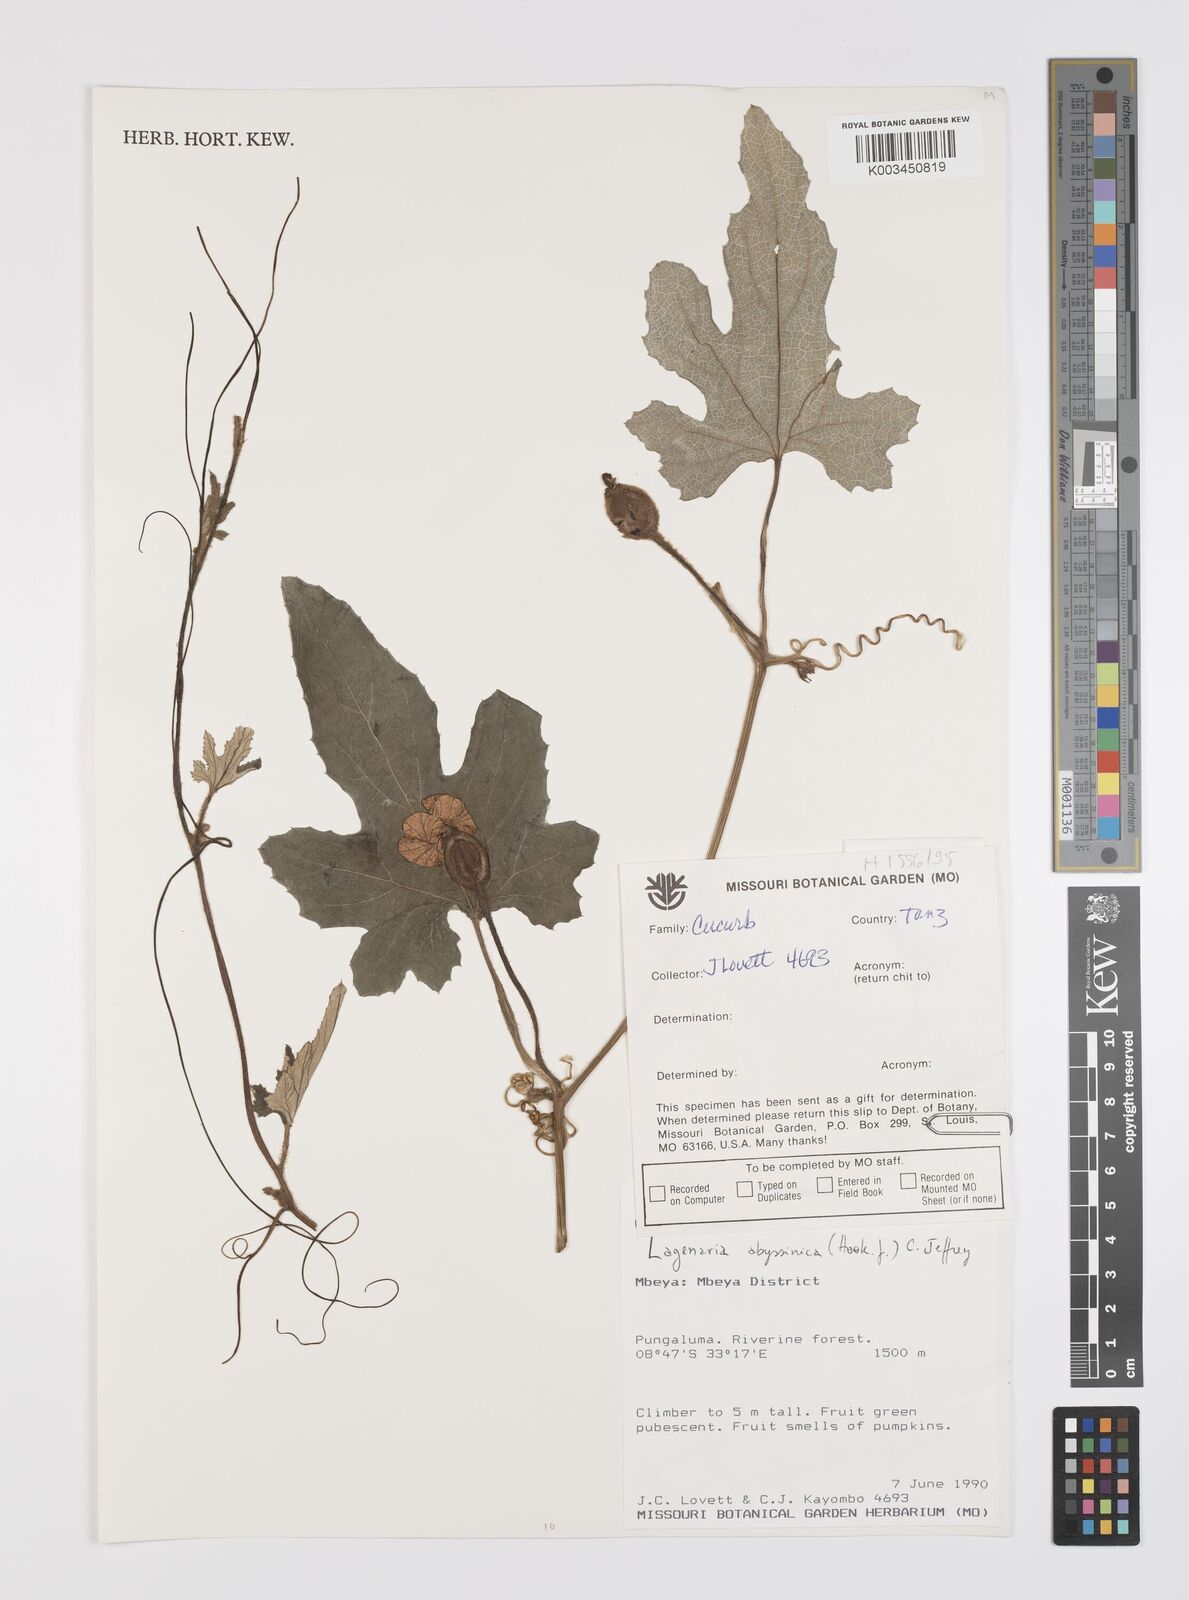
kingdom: Plantae
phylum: Tracheophyta
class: Magnoliopsida
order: Cucurbitales
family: Cucurbitaceae
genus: Lagenaria
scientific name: Lagenaria abyssinica
